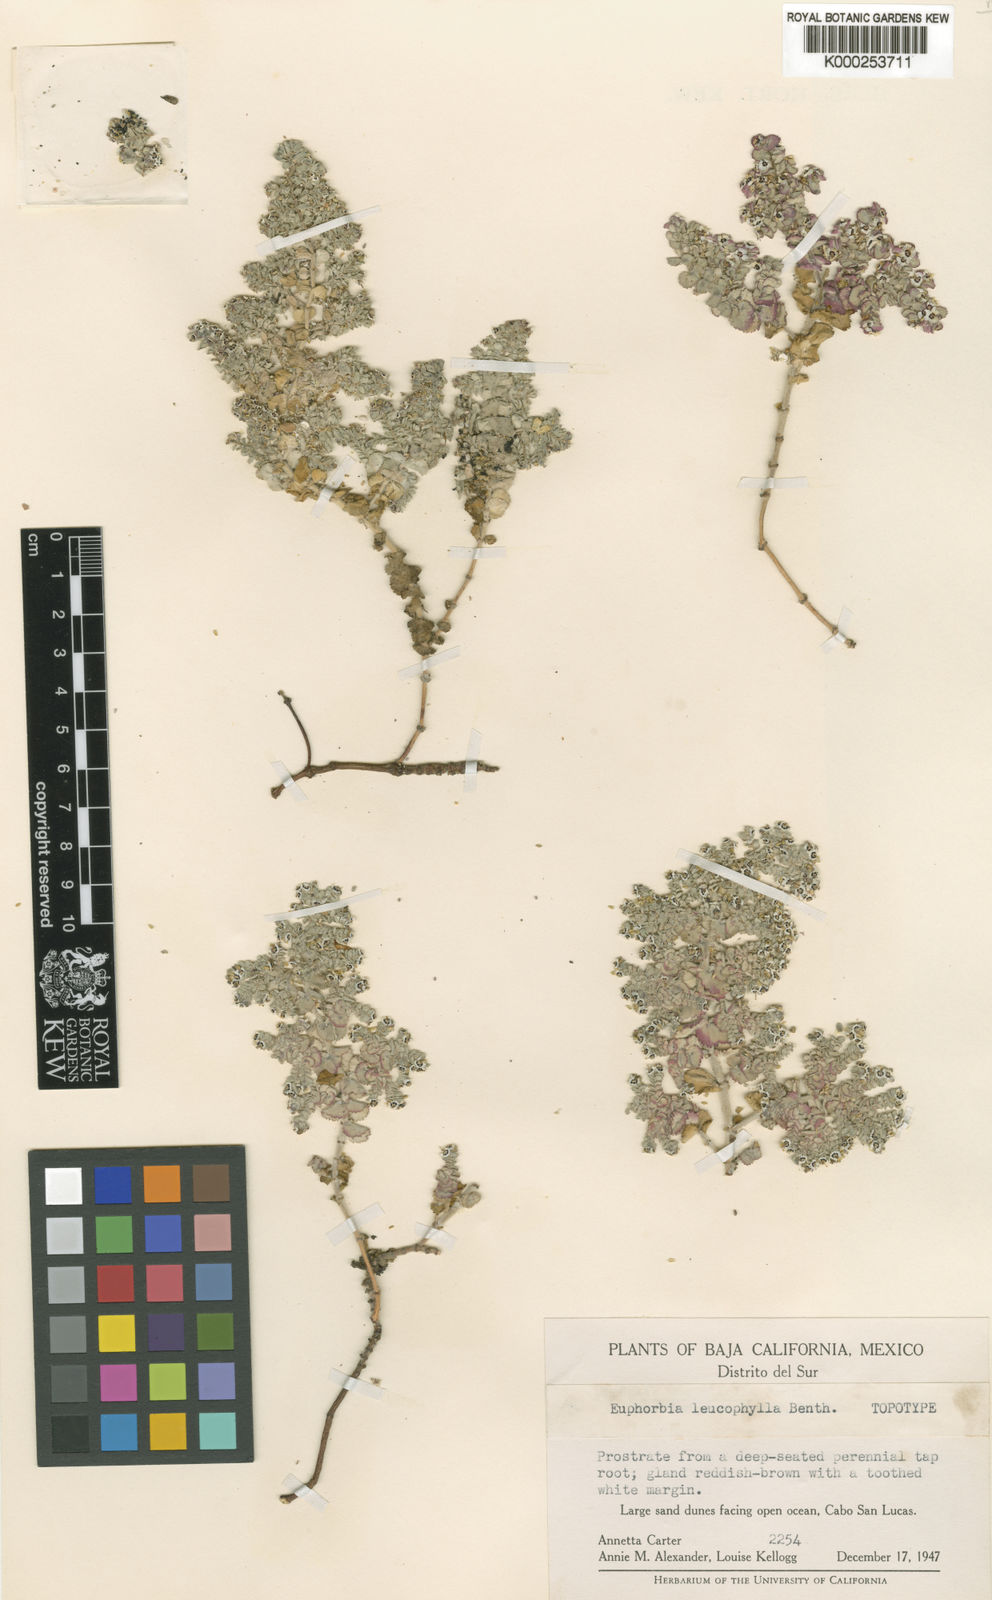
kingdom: Plantae
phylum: Tracheophyta
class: Magnoliopsida
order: Malpighiales
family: Euphorbiaceae
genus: Euphorbia
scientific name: Euphorbia leucophylla
